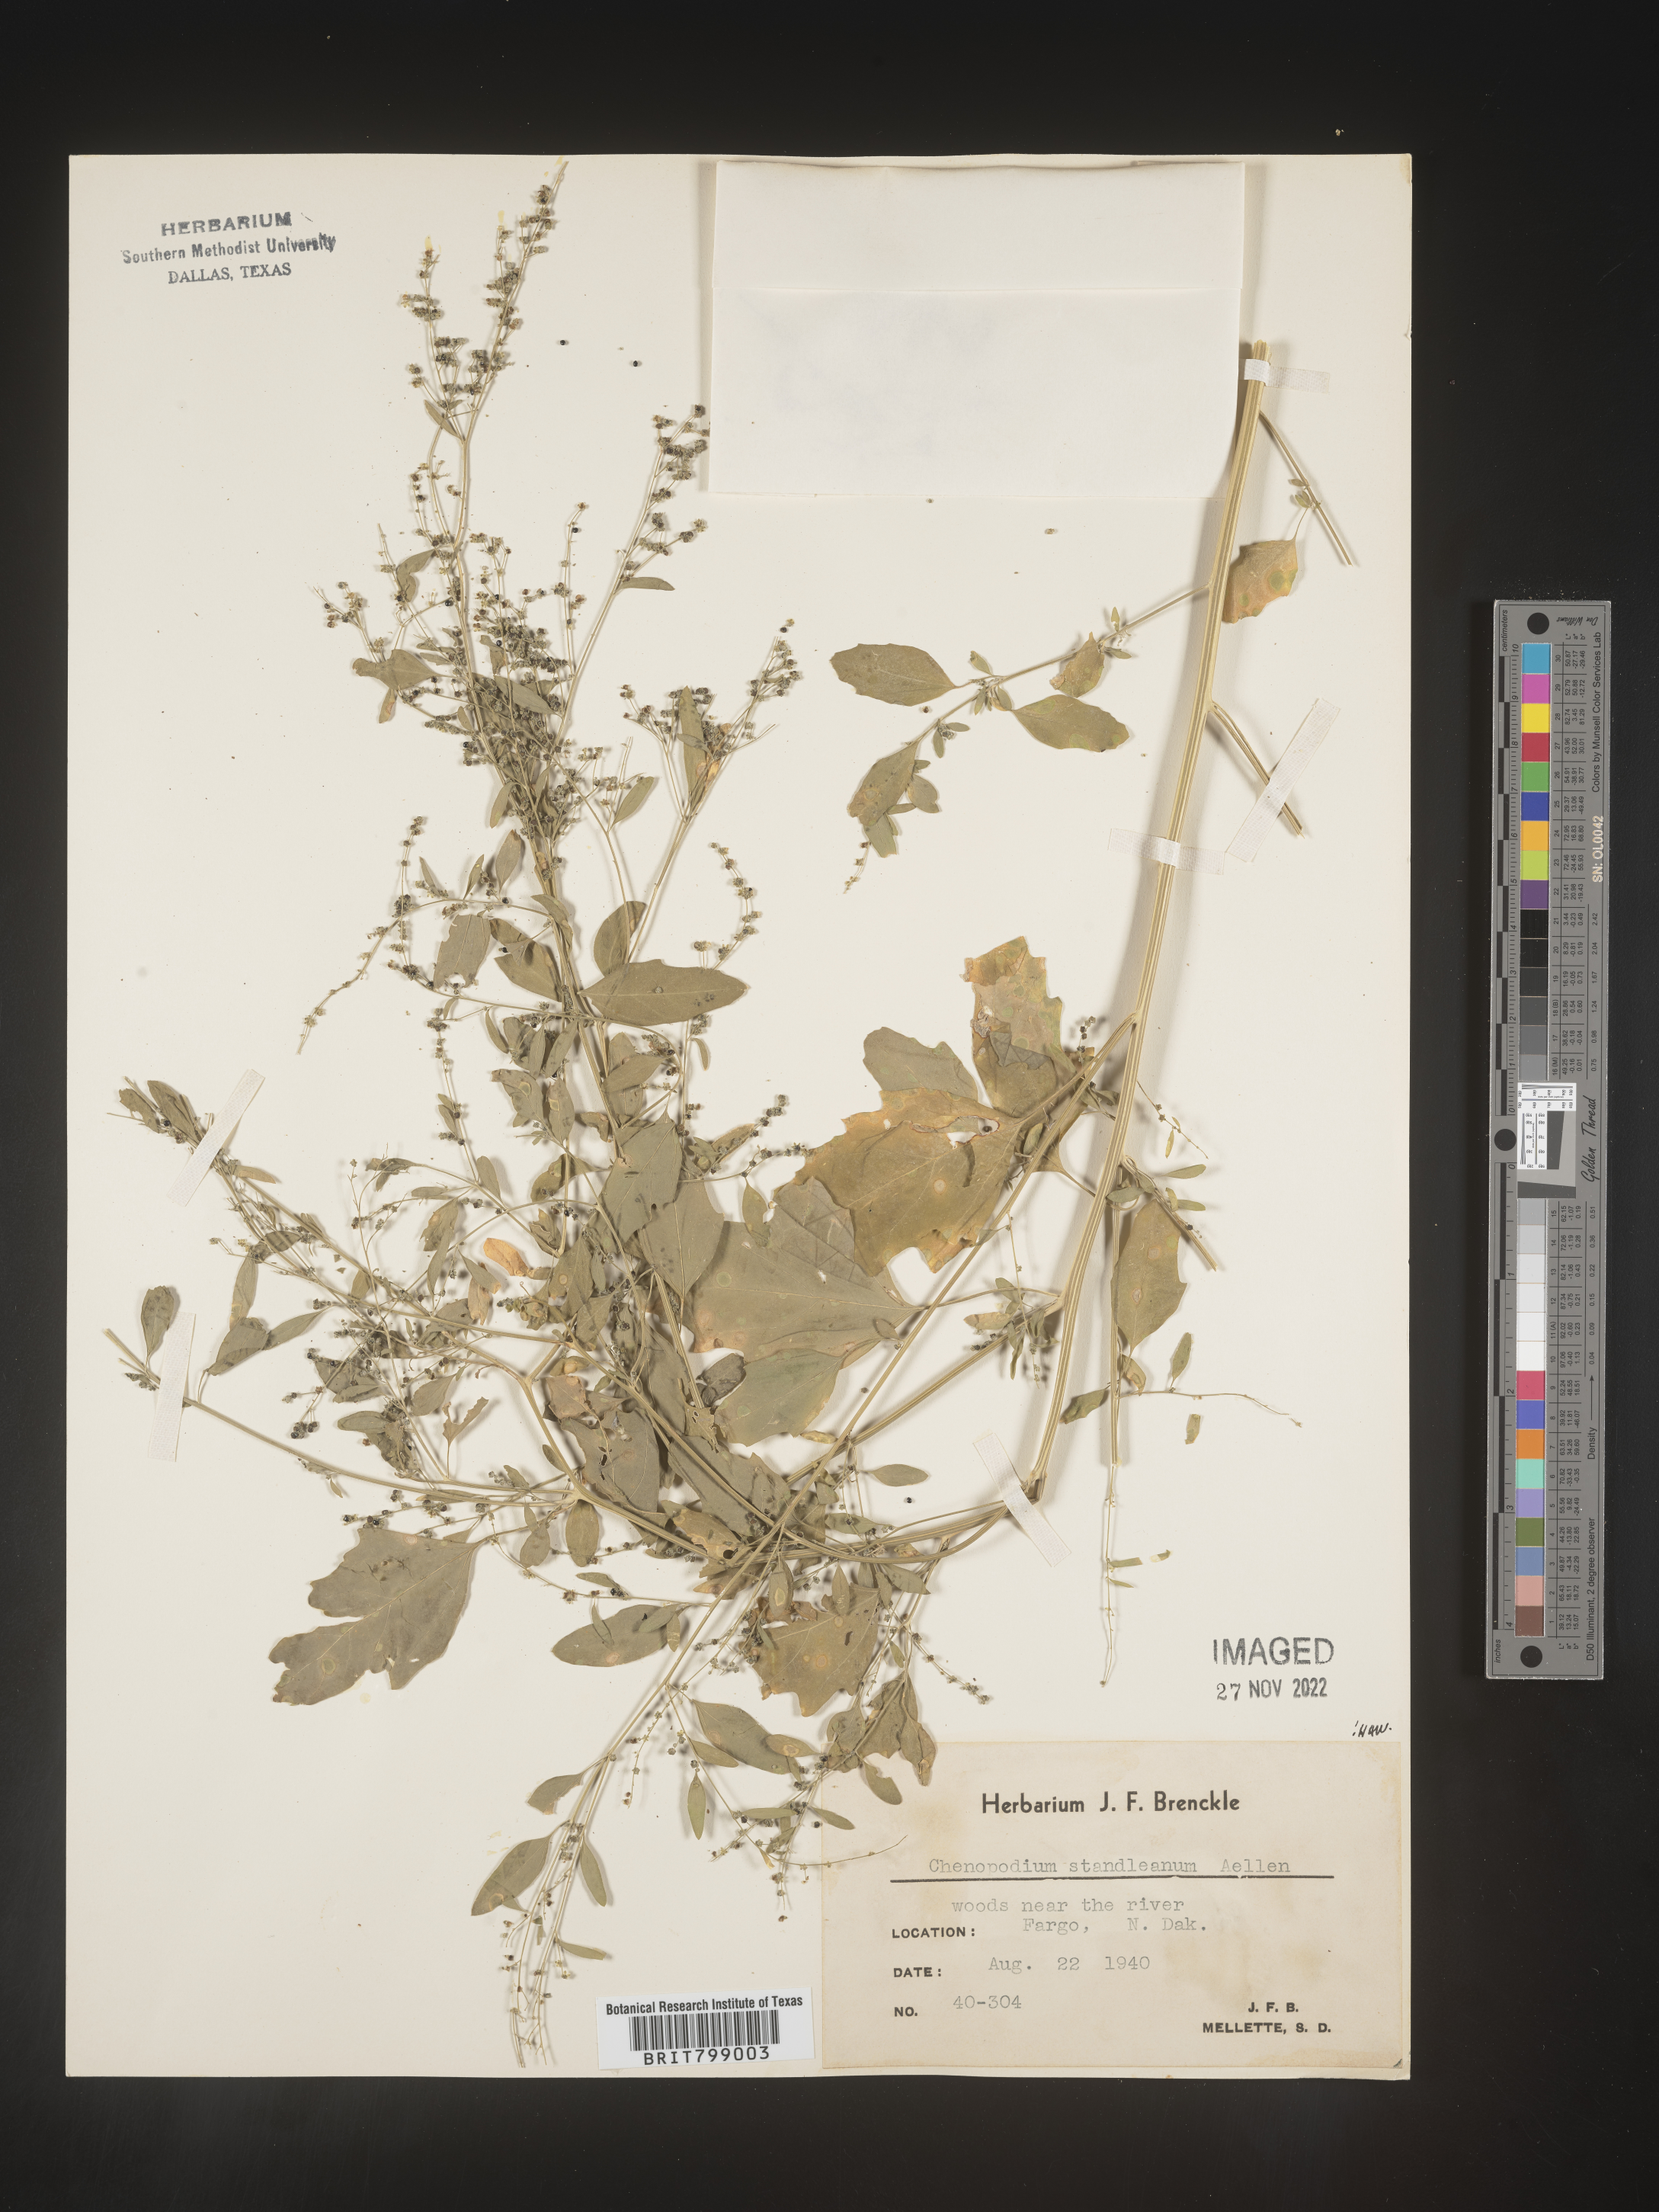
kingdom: Plantae
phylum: Tracheophyta
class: Magnoliopsida
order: Caryophyllales
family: Amaranthaceae
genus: Chenopodiastrum
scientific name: Chenopodiastrum standleyanum
